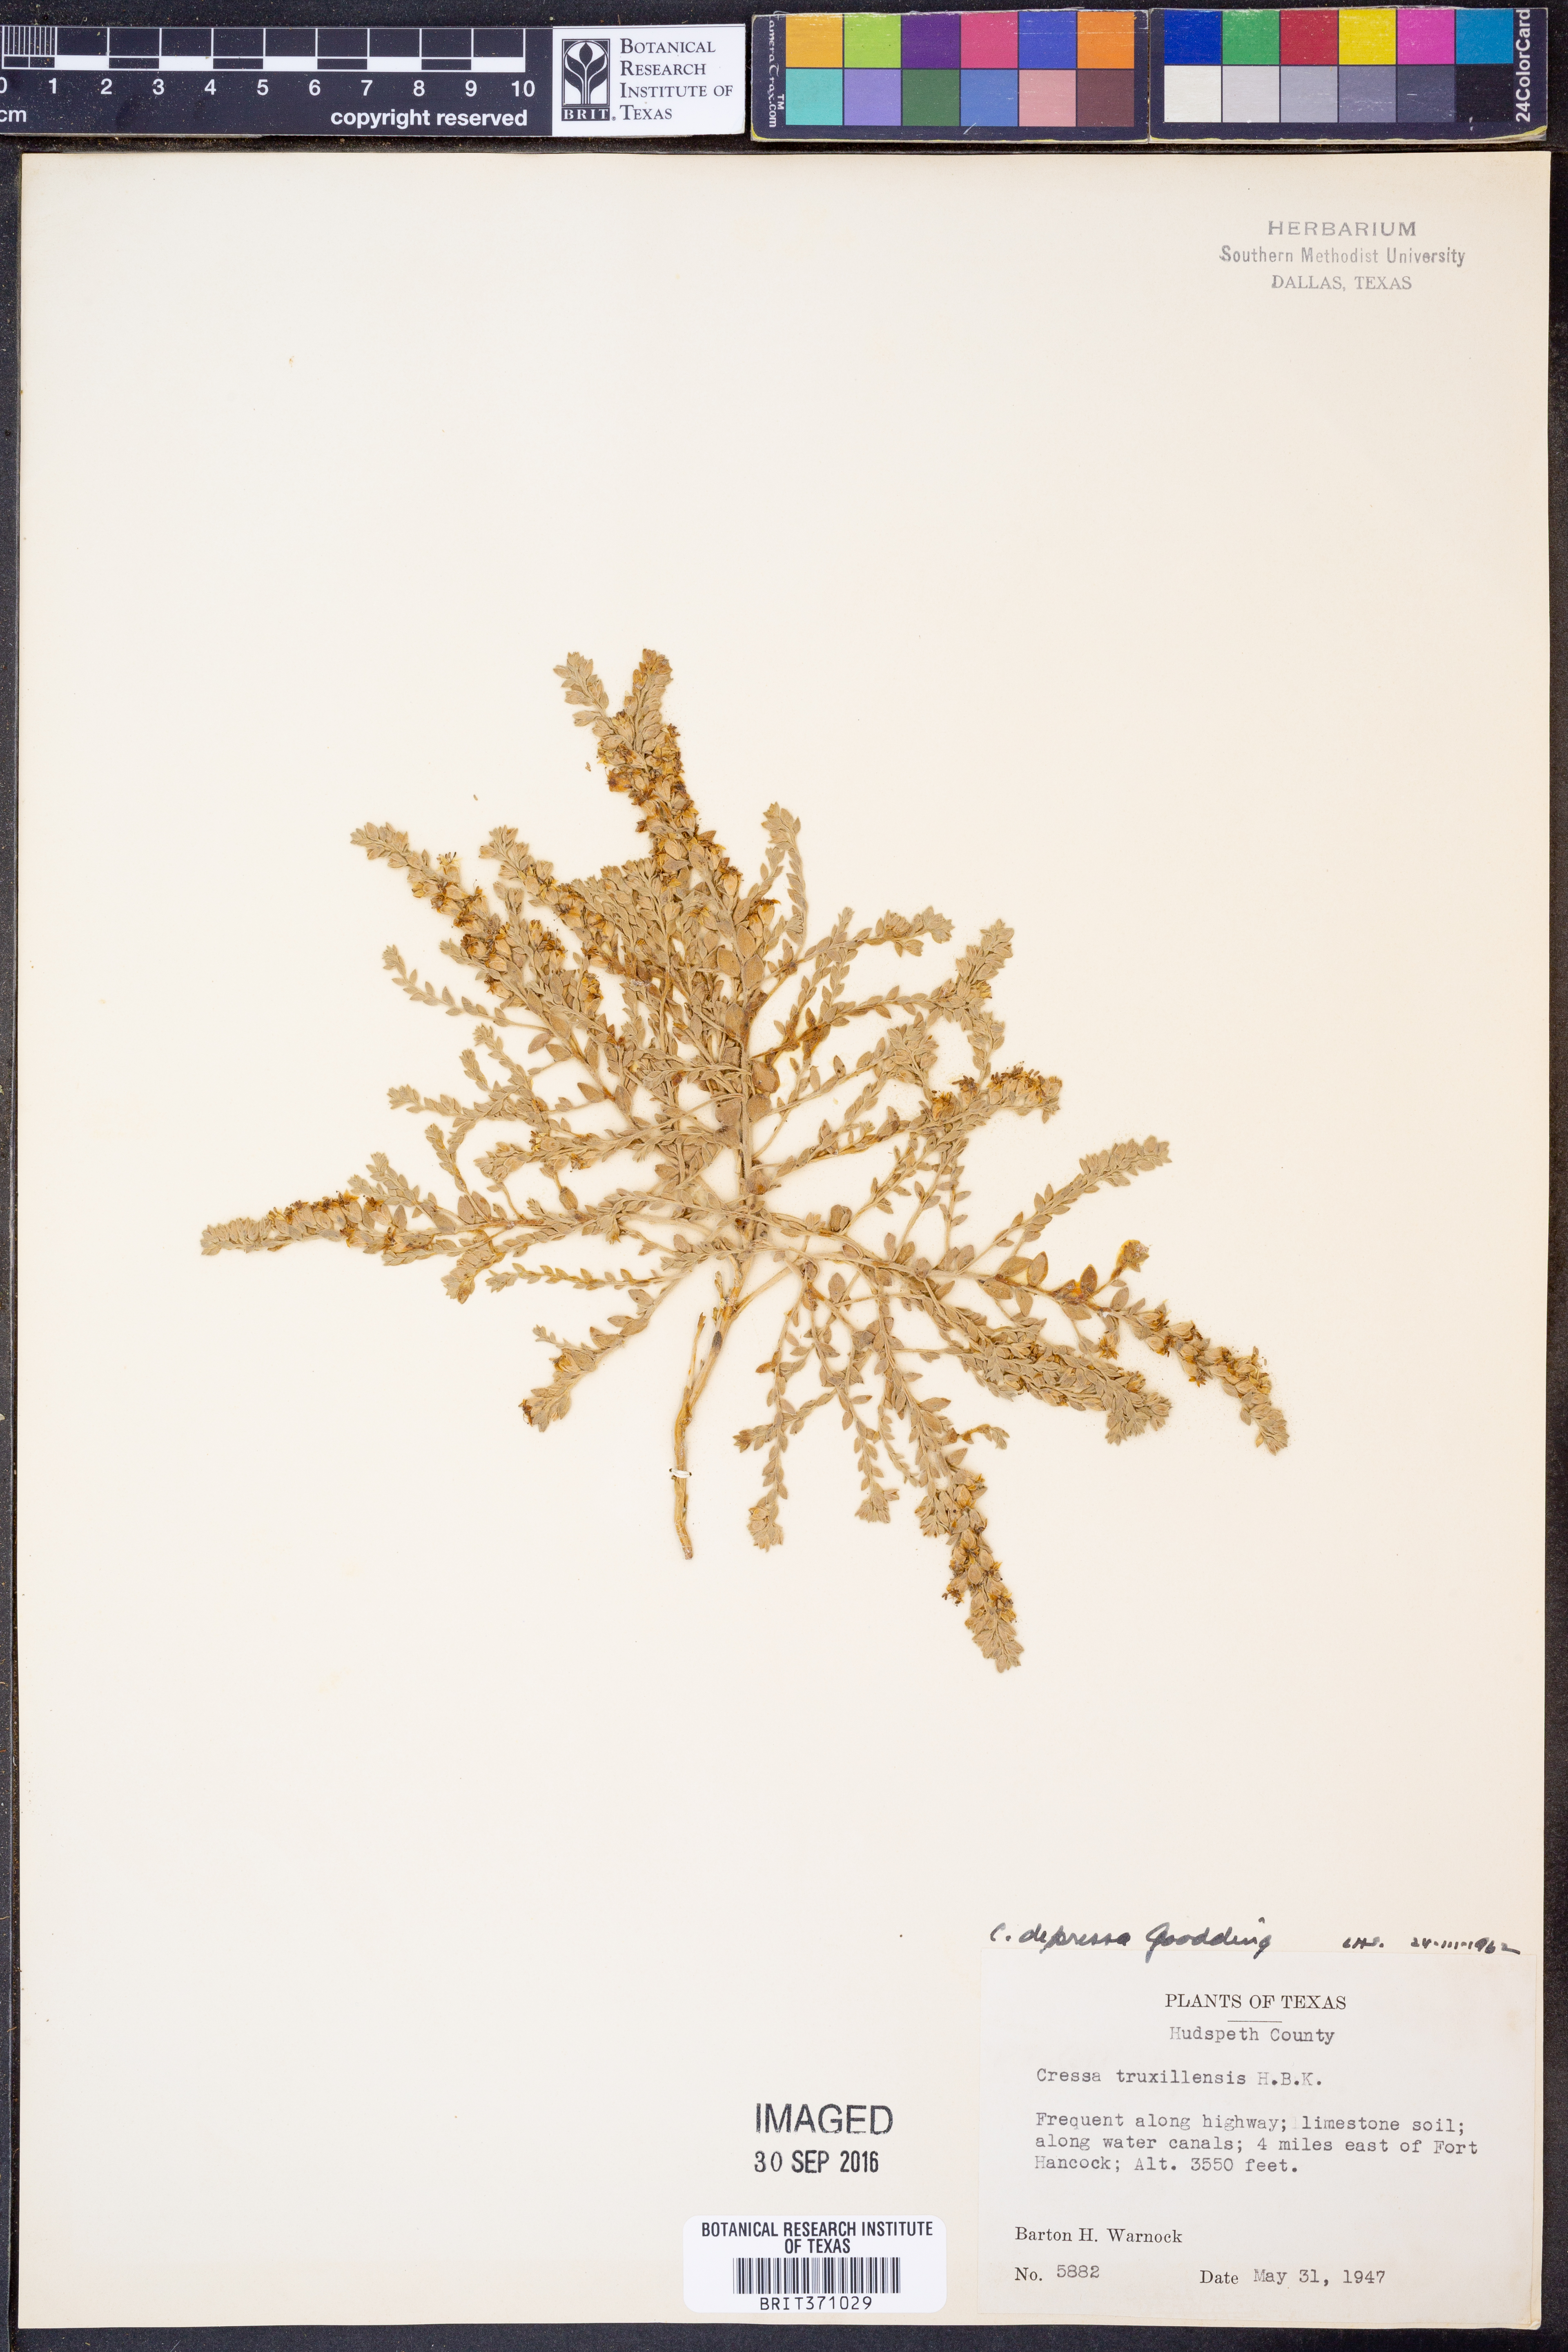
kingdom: Plantae
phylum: Tracheophyta
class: Magnoliopsida
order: Solanales
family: Convolvulaceae
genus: Cressa
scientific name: Cressa truxillensis
